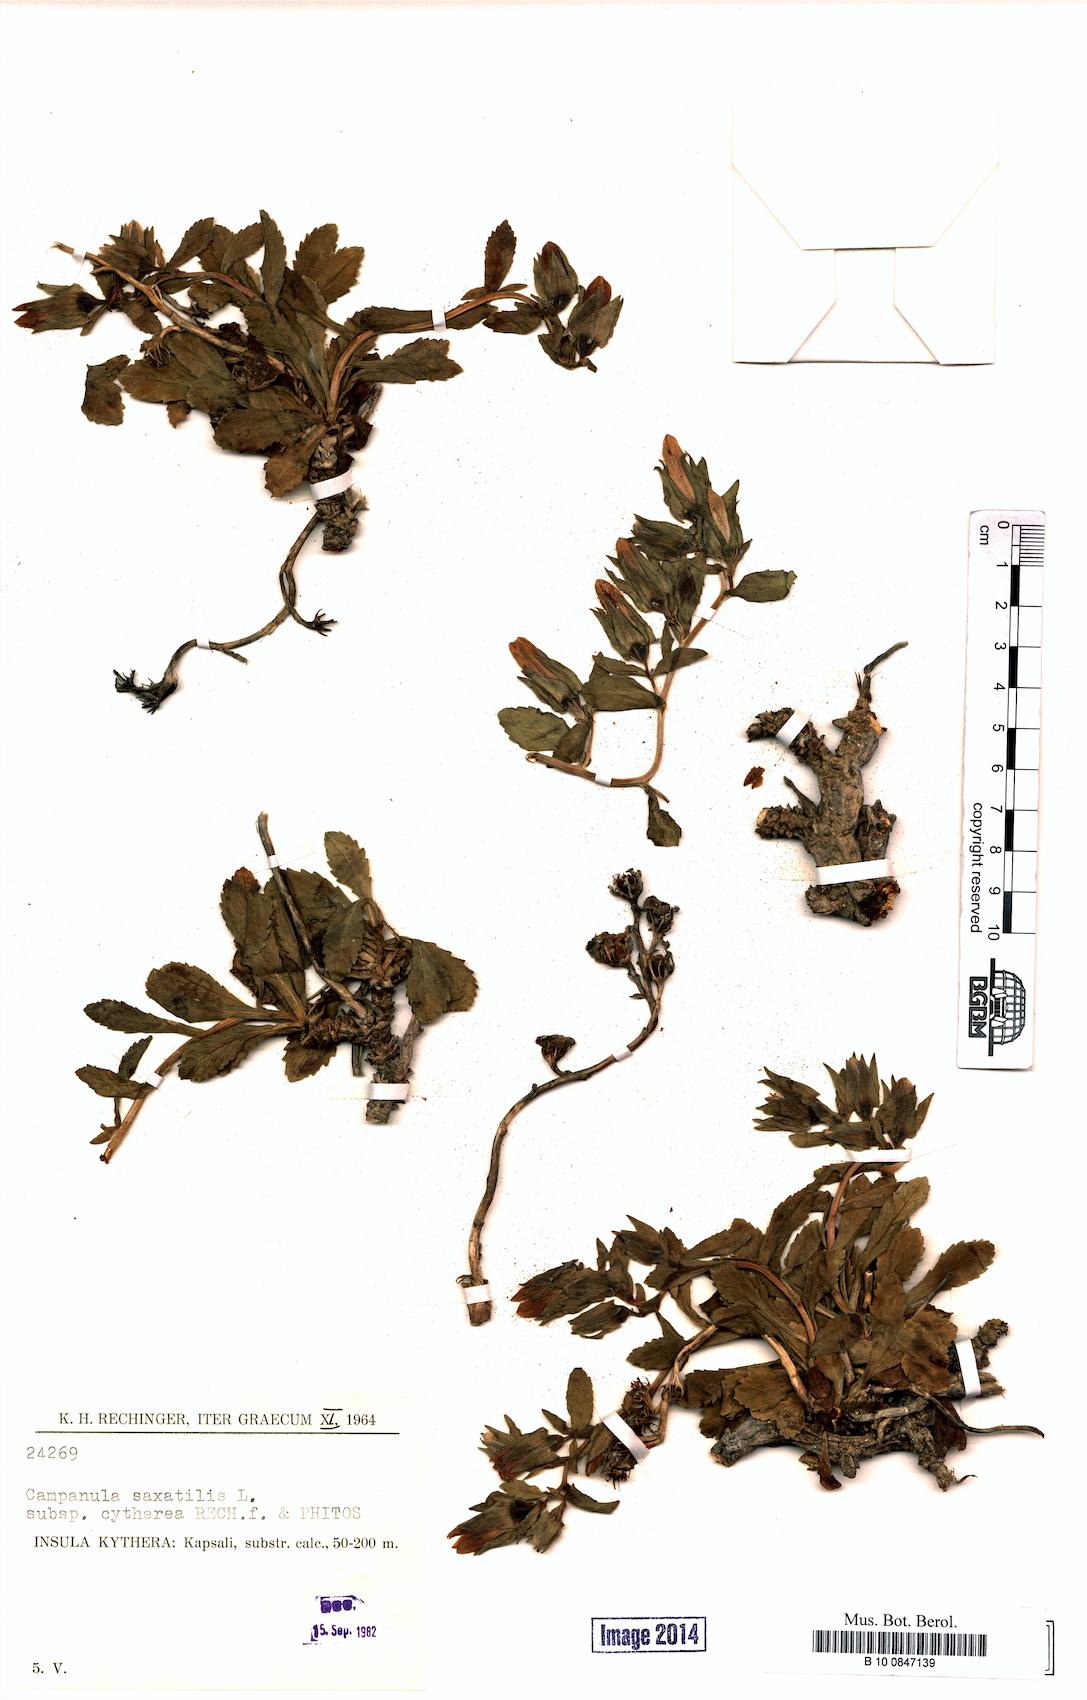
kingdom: Plantae
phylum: Tracheophyta
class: Magnoliopsida
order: Asterales
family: Campanulaceae
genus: Campanula
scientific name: Campanula saxatilis
